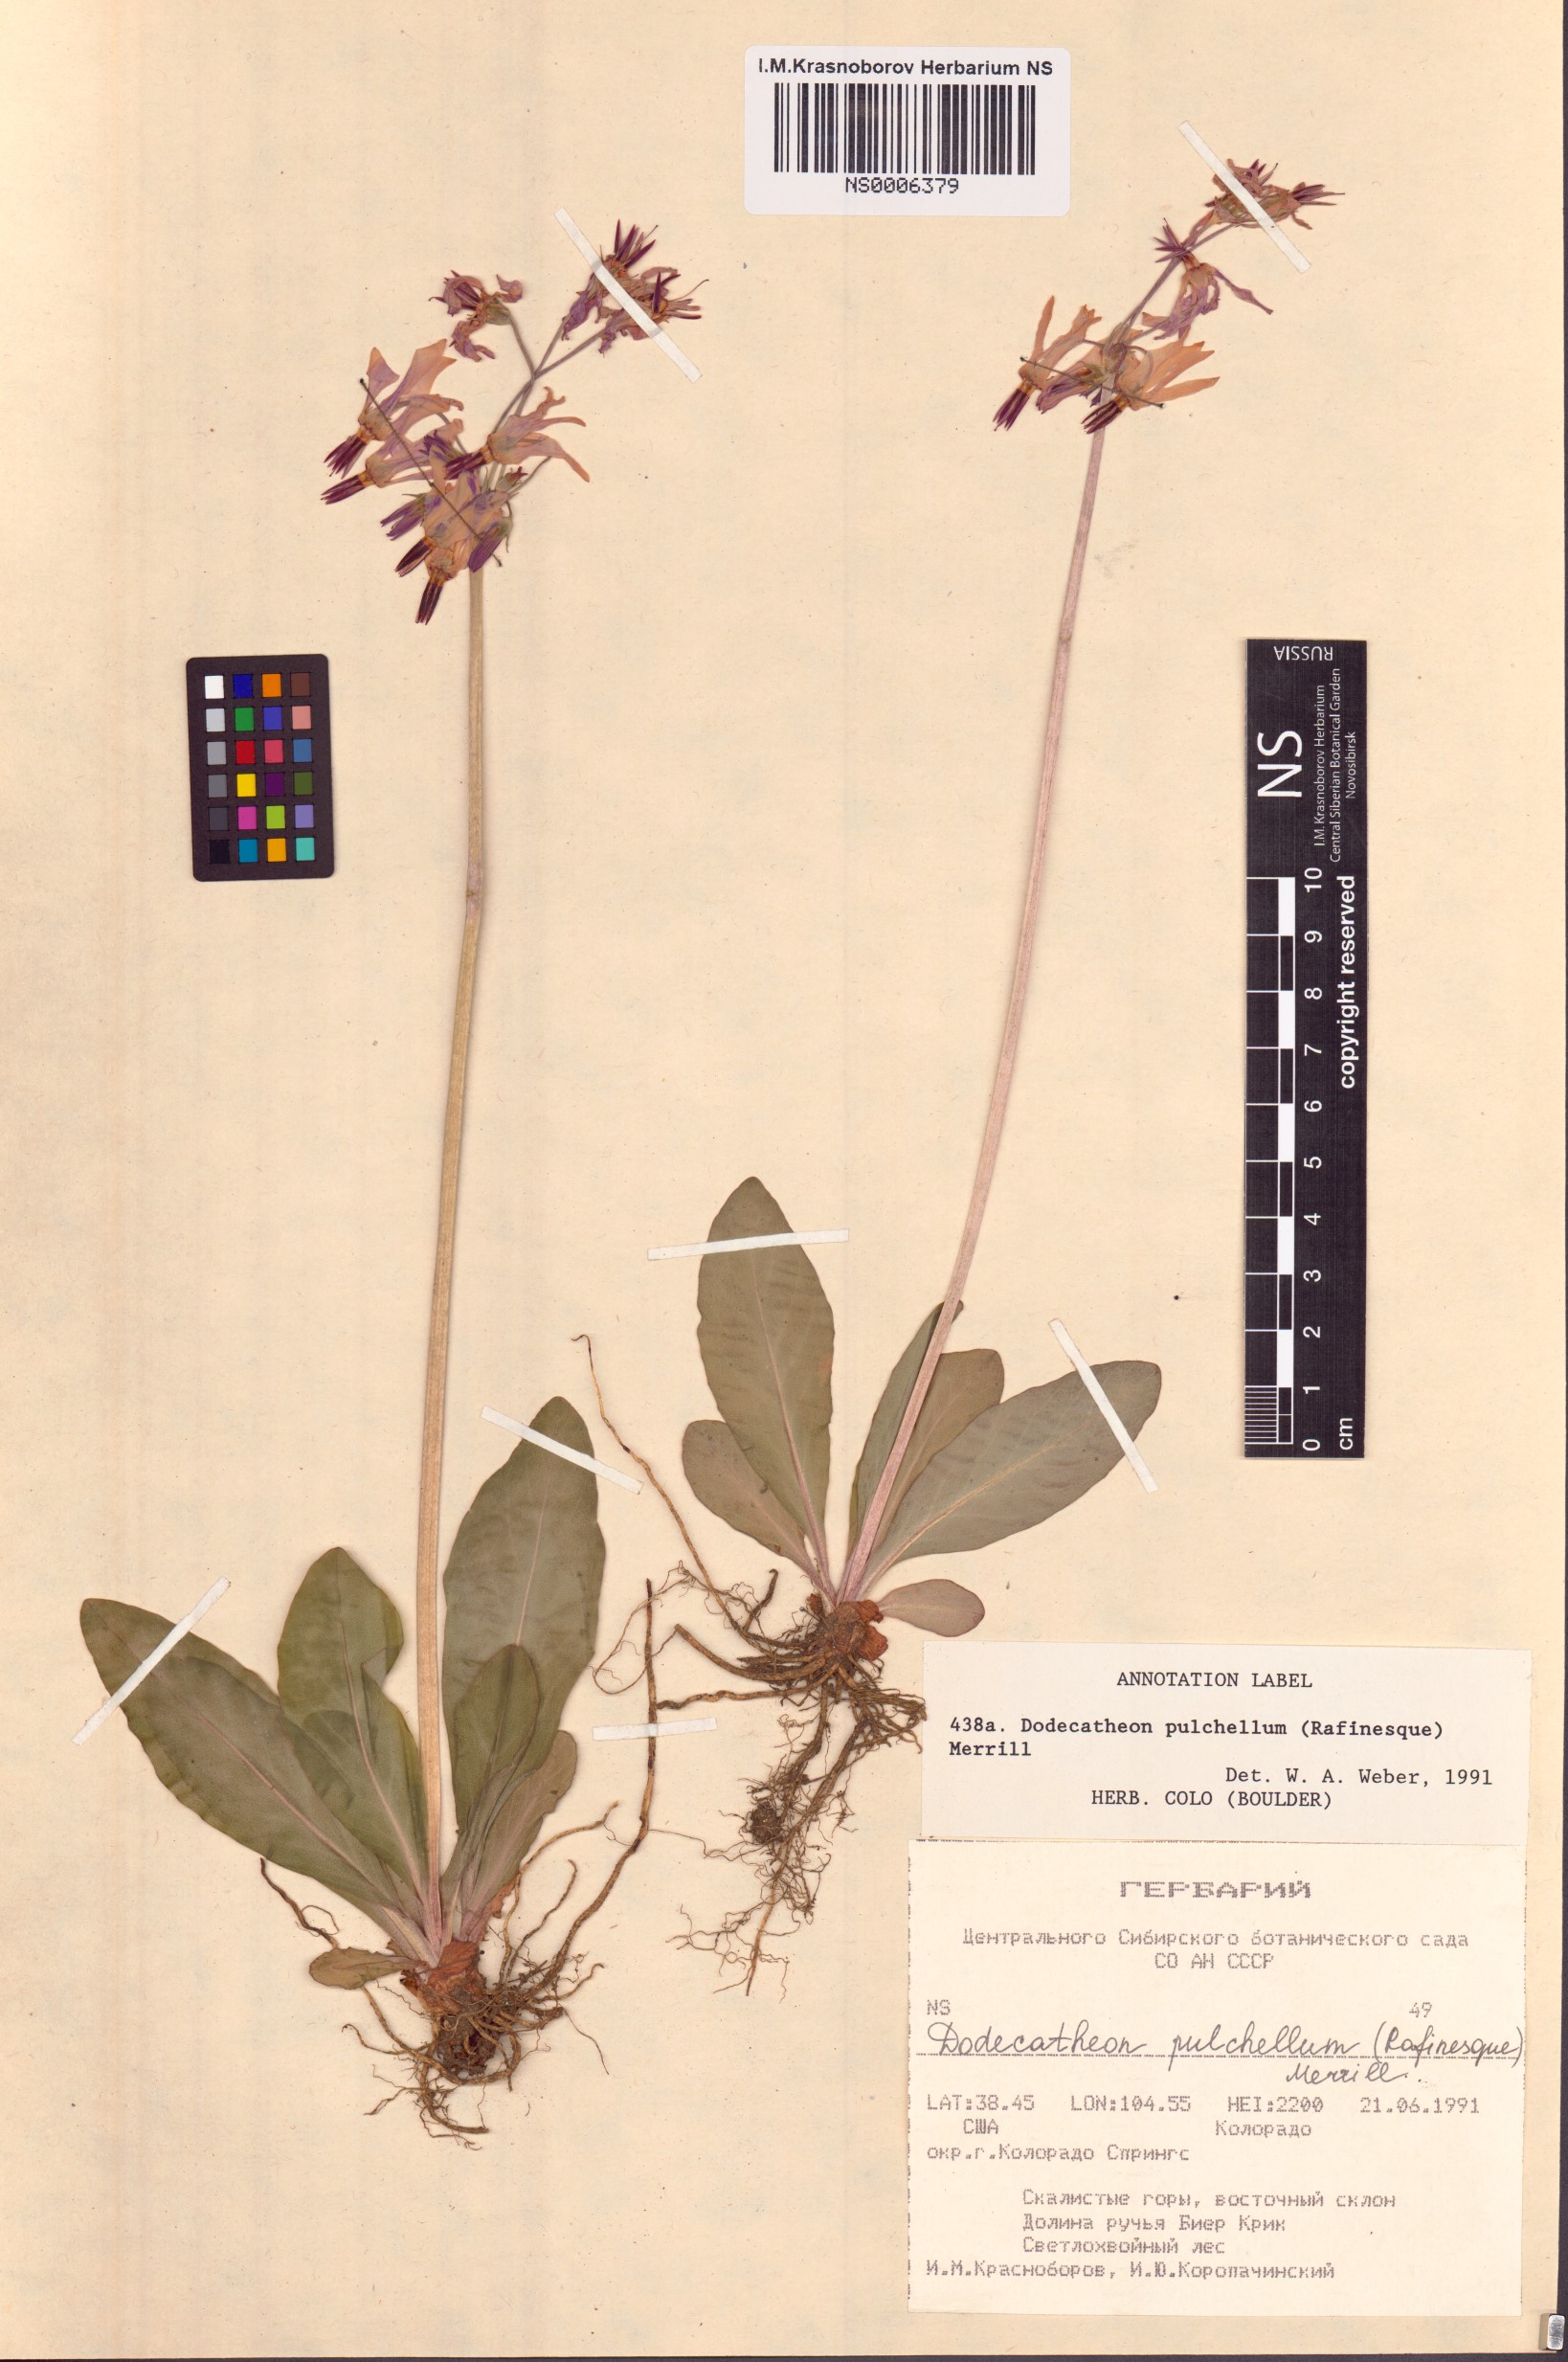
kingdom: Plantae
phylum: Tracheophyta
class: Magnoliopsida
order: Ericales
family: Primulaceae
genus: Dodecatheon
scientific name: Dodecatheon pulchellum
